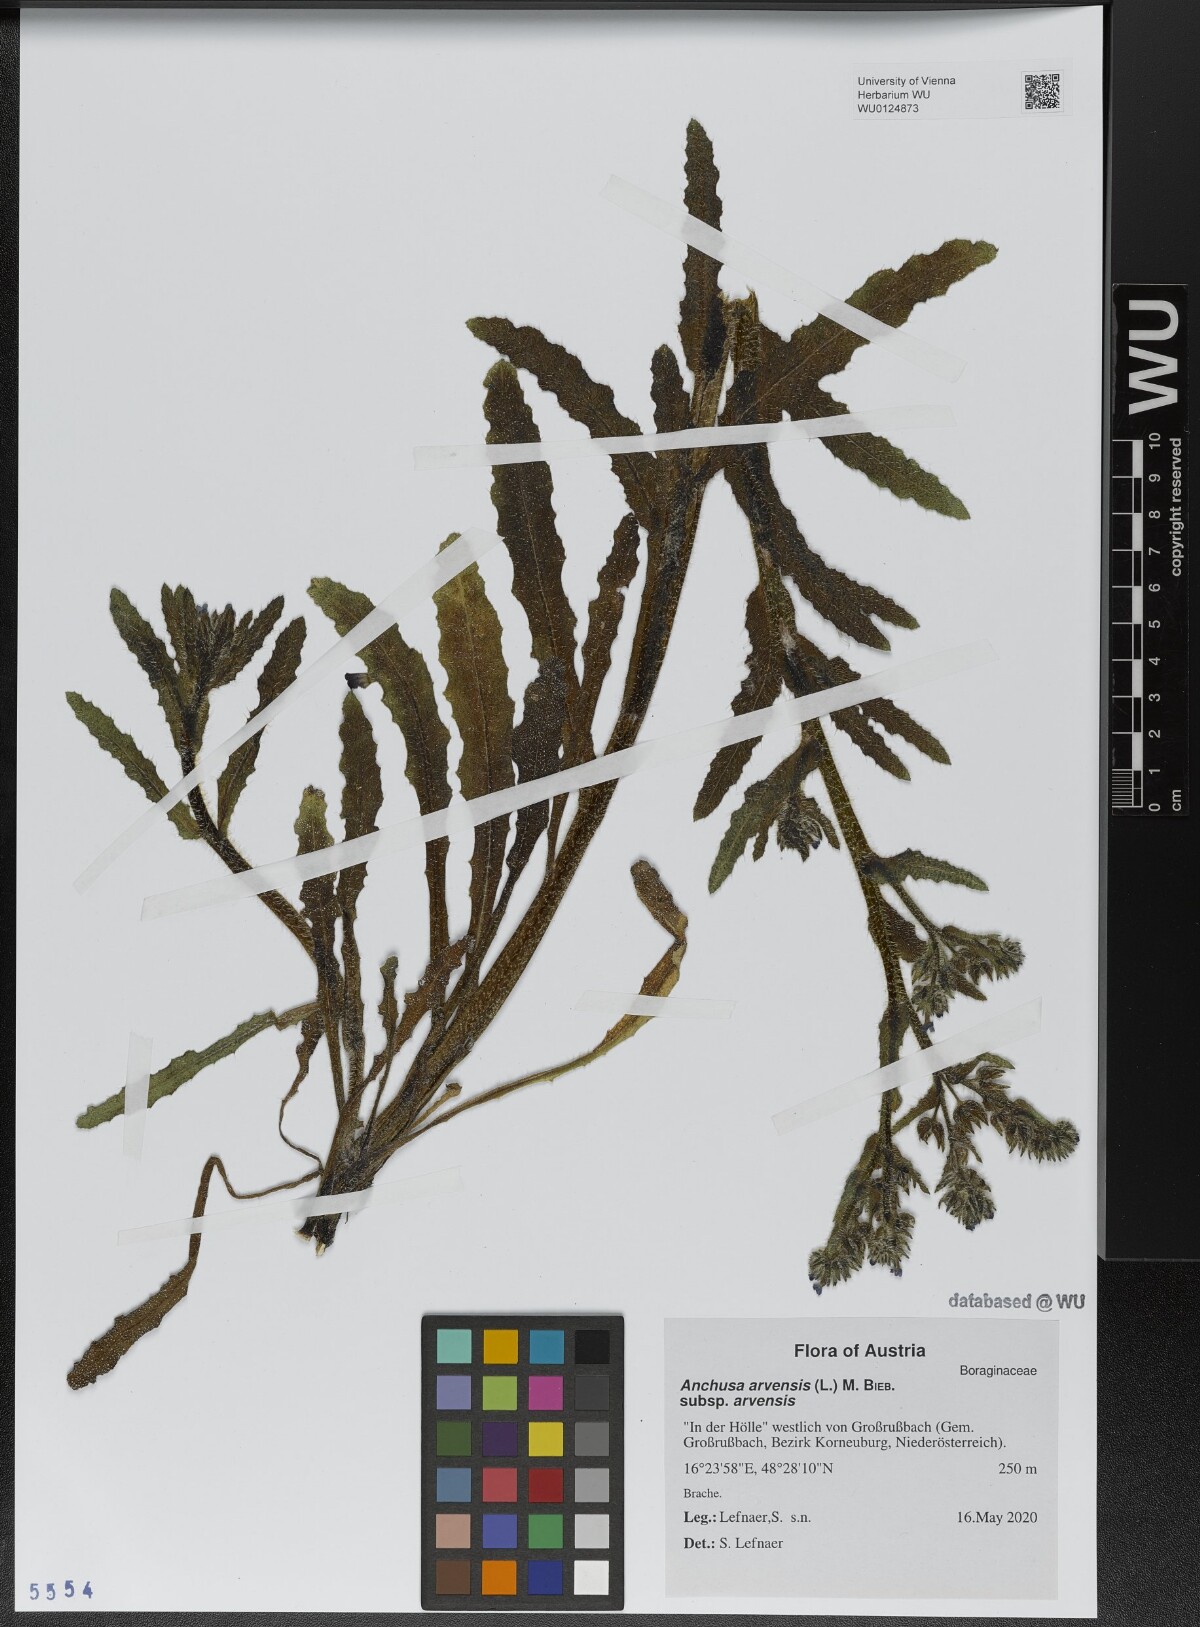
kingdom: Plantae
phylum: Tracheophyta
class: Magnoliopsida
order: Boraginales
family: Boraginaceae
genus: Lycopsis
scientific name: Lycopsis arvensis
